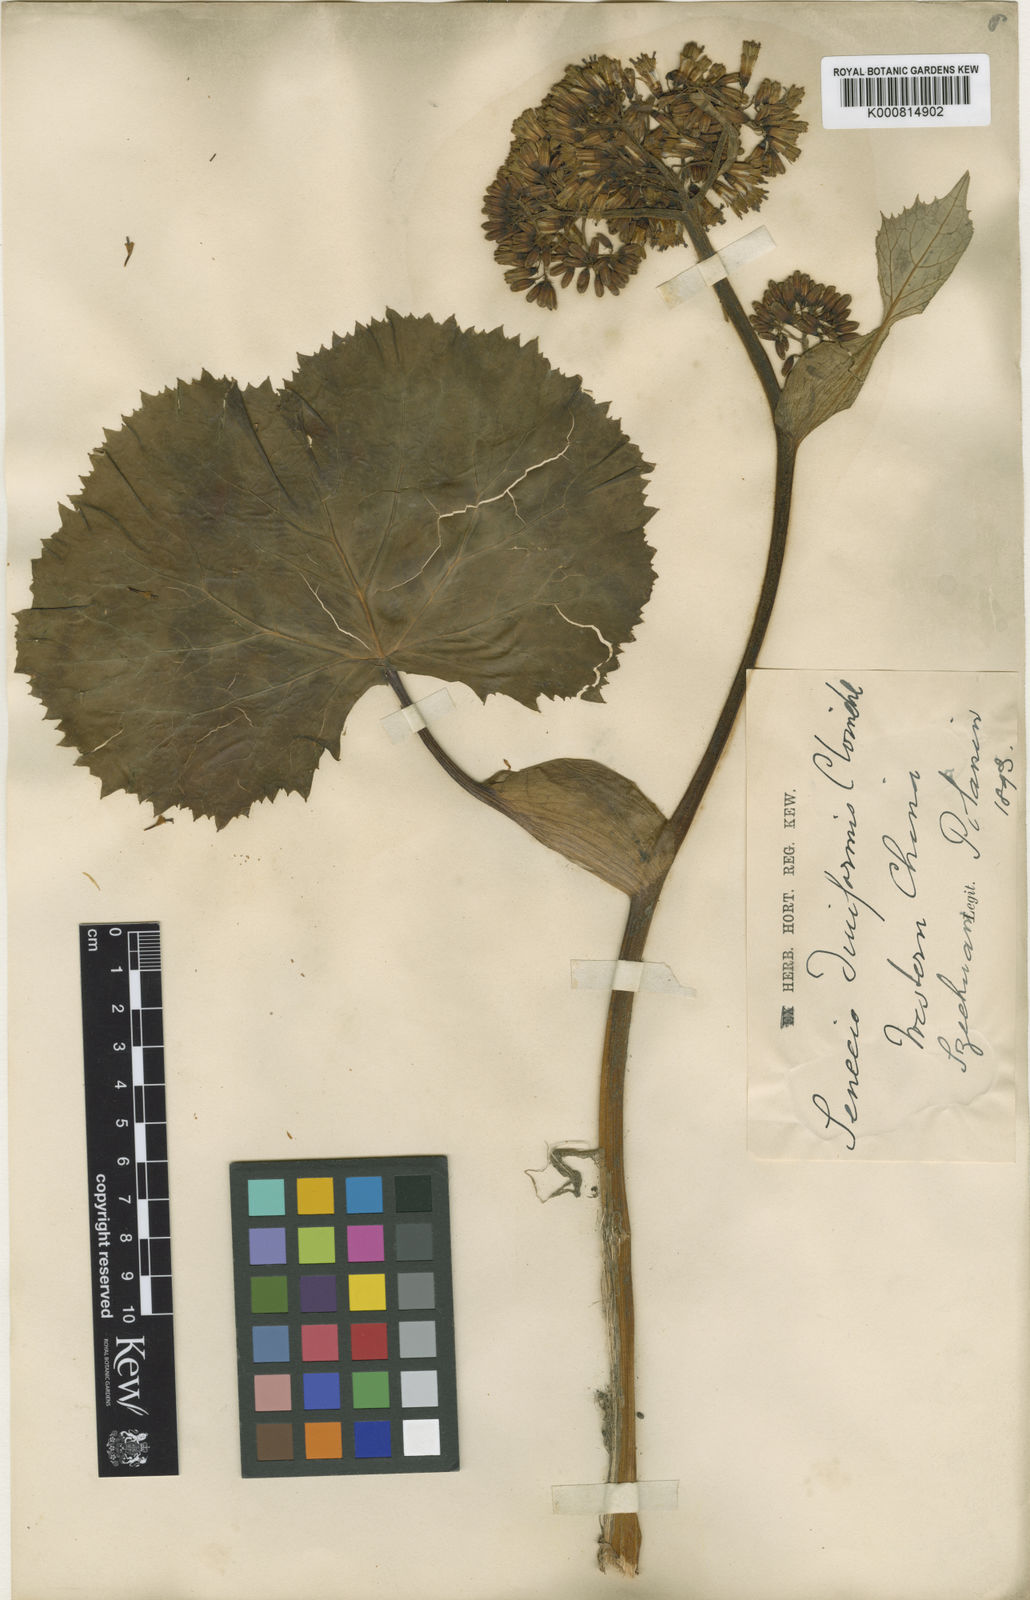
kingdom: Plantae
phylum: Tracheophyta
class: Magnoliopsida
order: Asterales
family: Asteraceae
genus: Ligularia
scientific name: Ligularia duciformis
